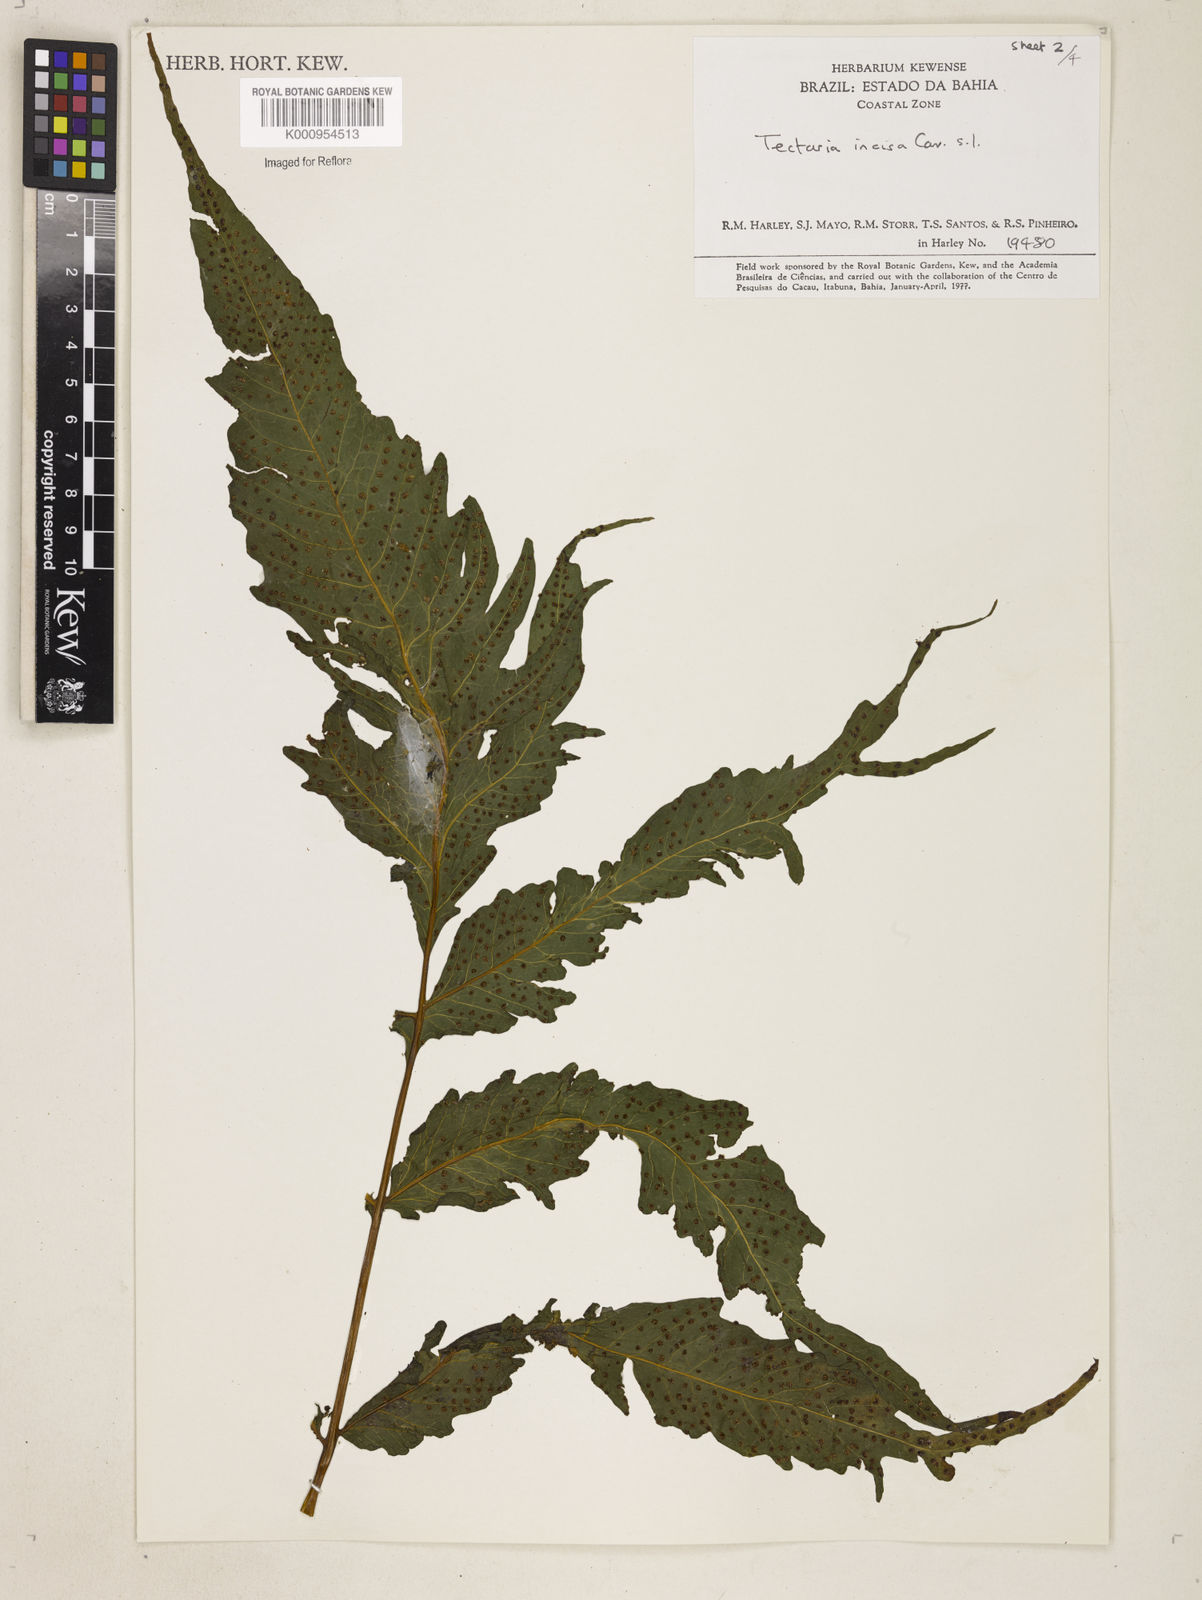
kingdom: Plantae
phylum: Tracheophyta
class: Polypodiopsida
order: Polypodiales
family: Tectariaceae
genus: Tectaria
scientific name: Tectaria incisa
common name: Incised halberd fern
